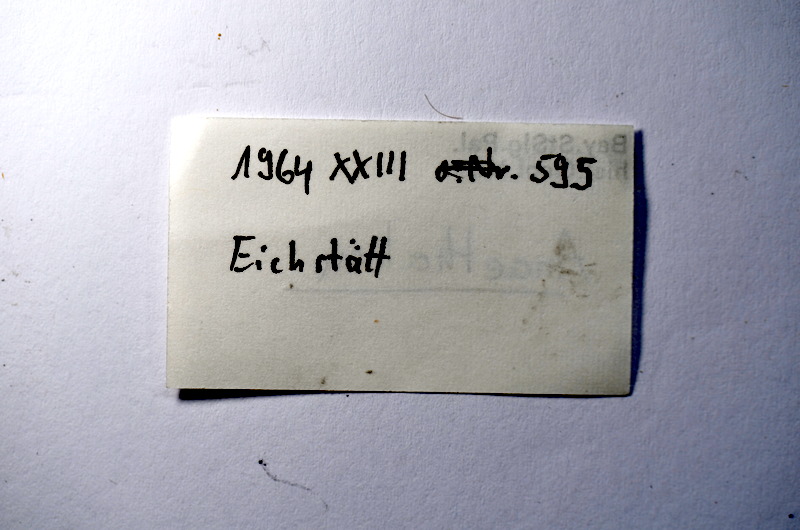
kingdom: Animalia
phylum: Chordata
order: Elopiformes
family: Anaethalionidae
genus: Anaethalion
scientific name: Anaethalion
